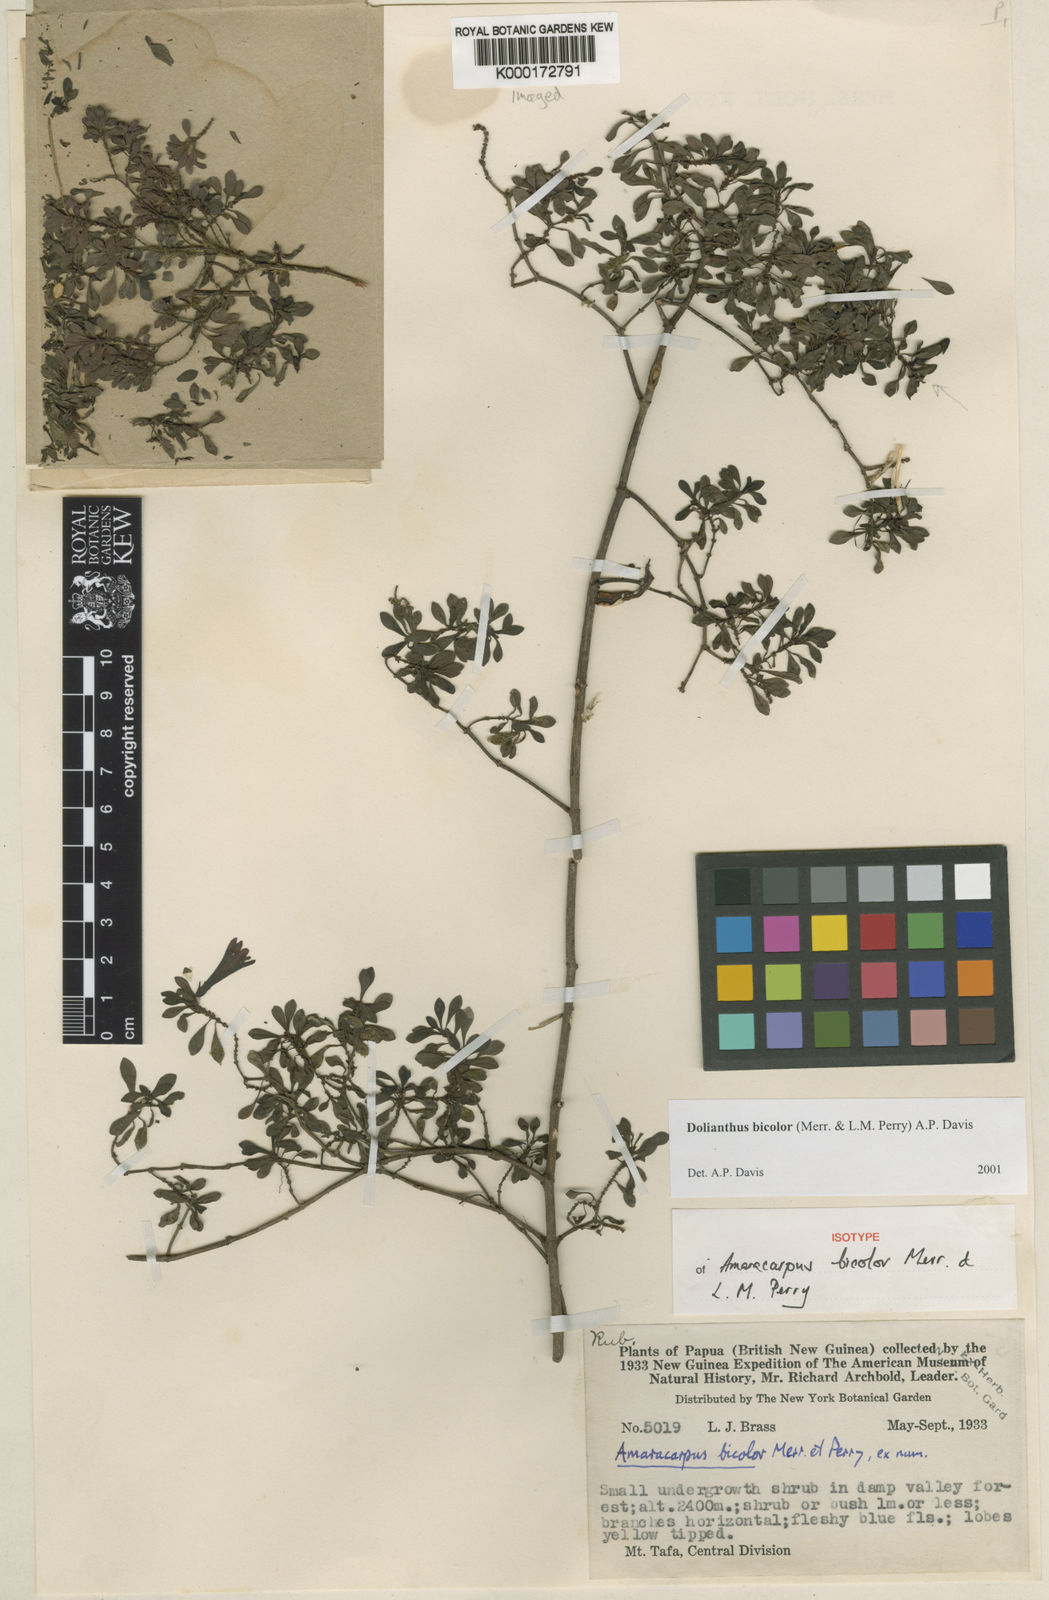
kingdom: Plantae
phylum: Tracheophyta
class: Magnoliopsida
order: Gentianales
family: Rubiaceae
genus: Dolianthus
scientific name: Dolianthus bicolor
